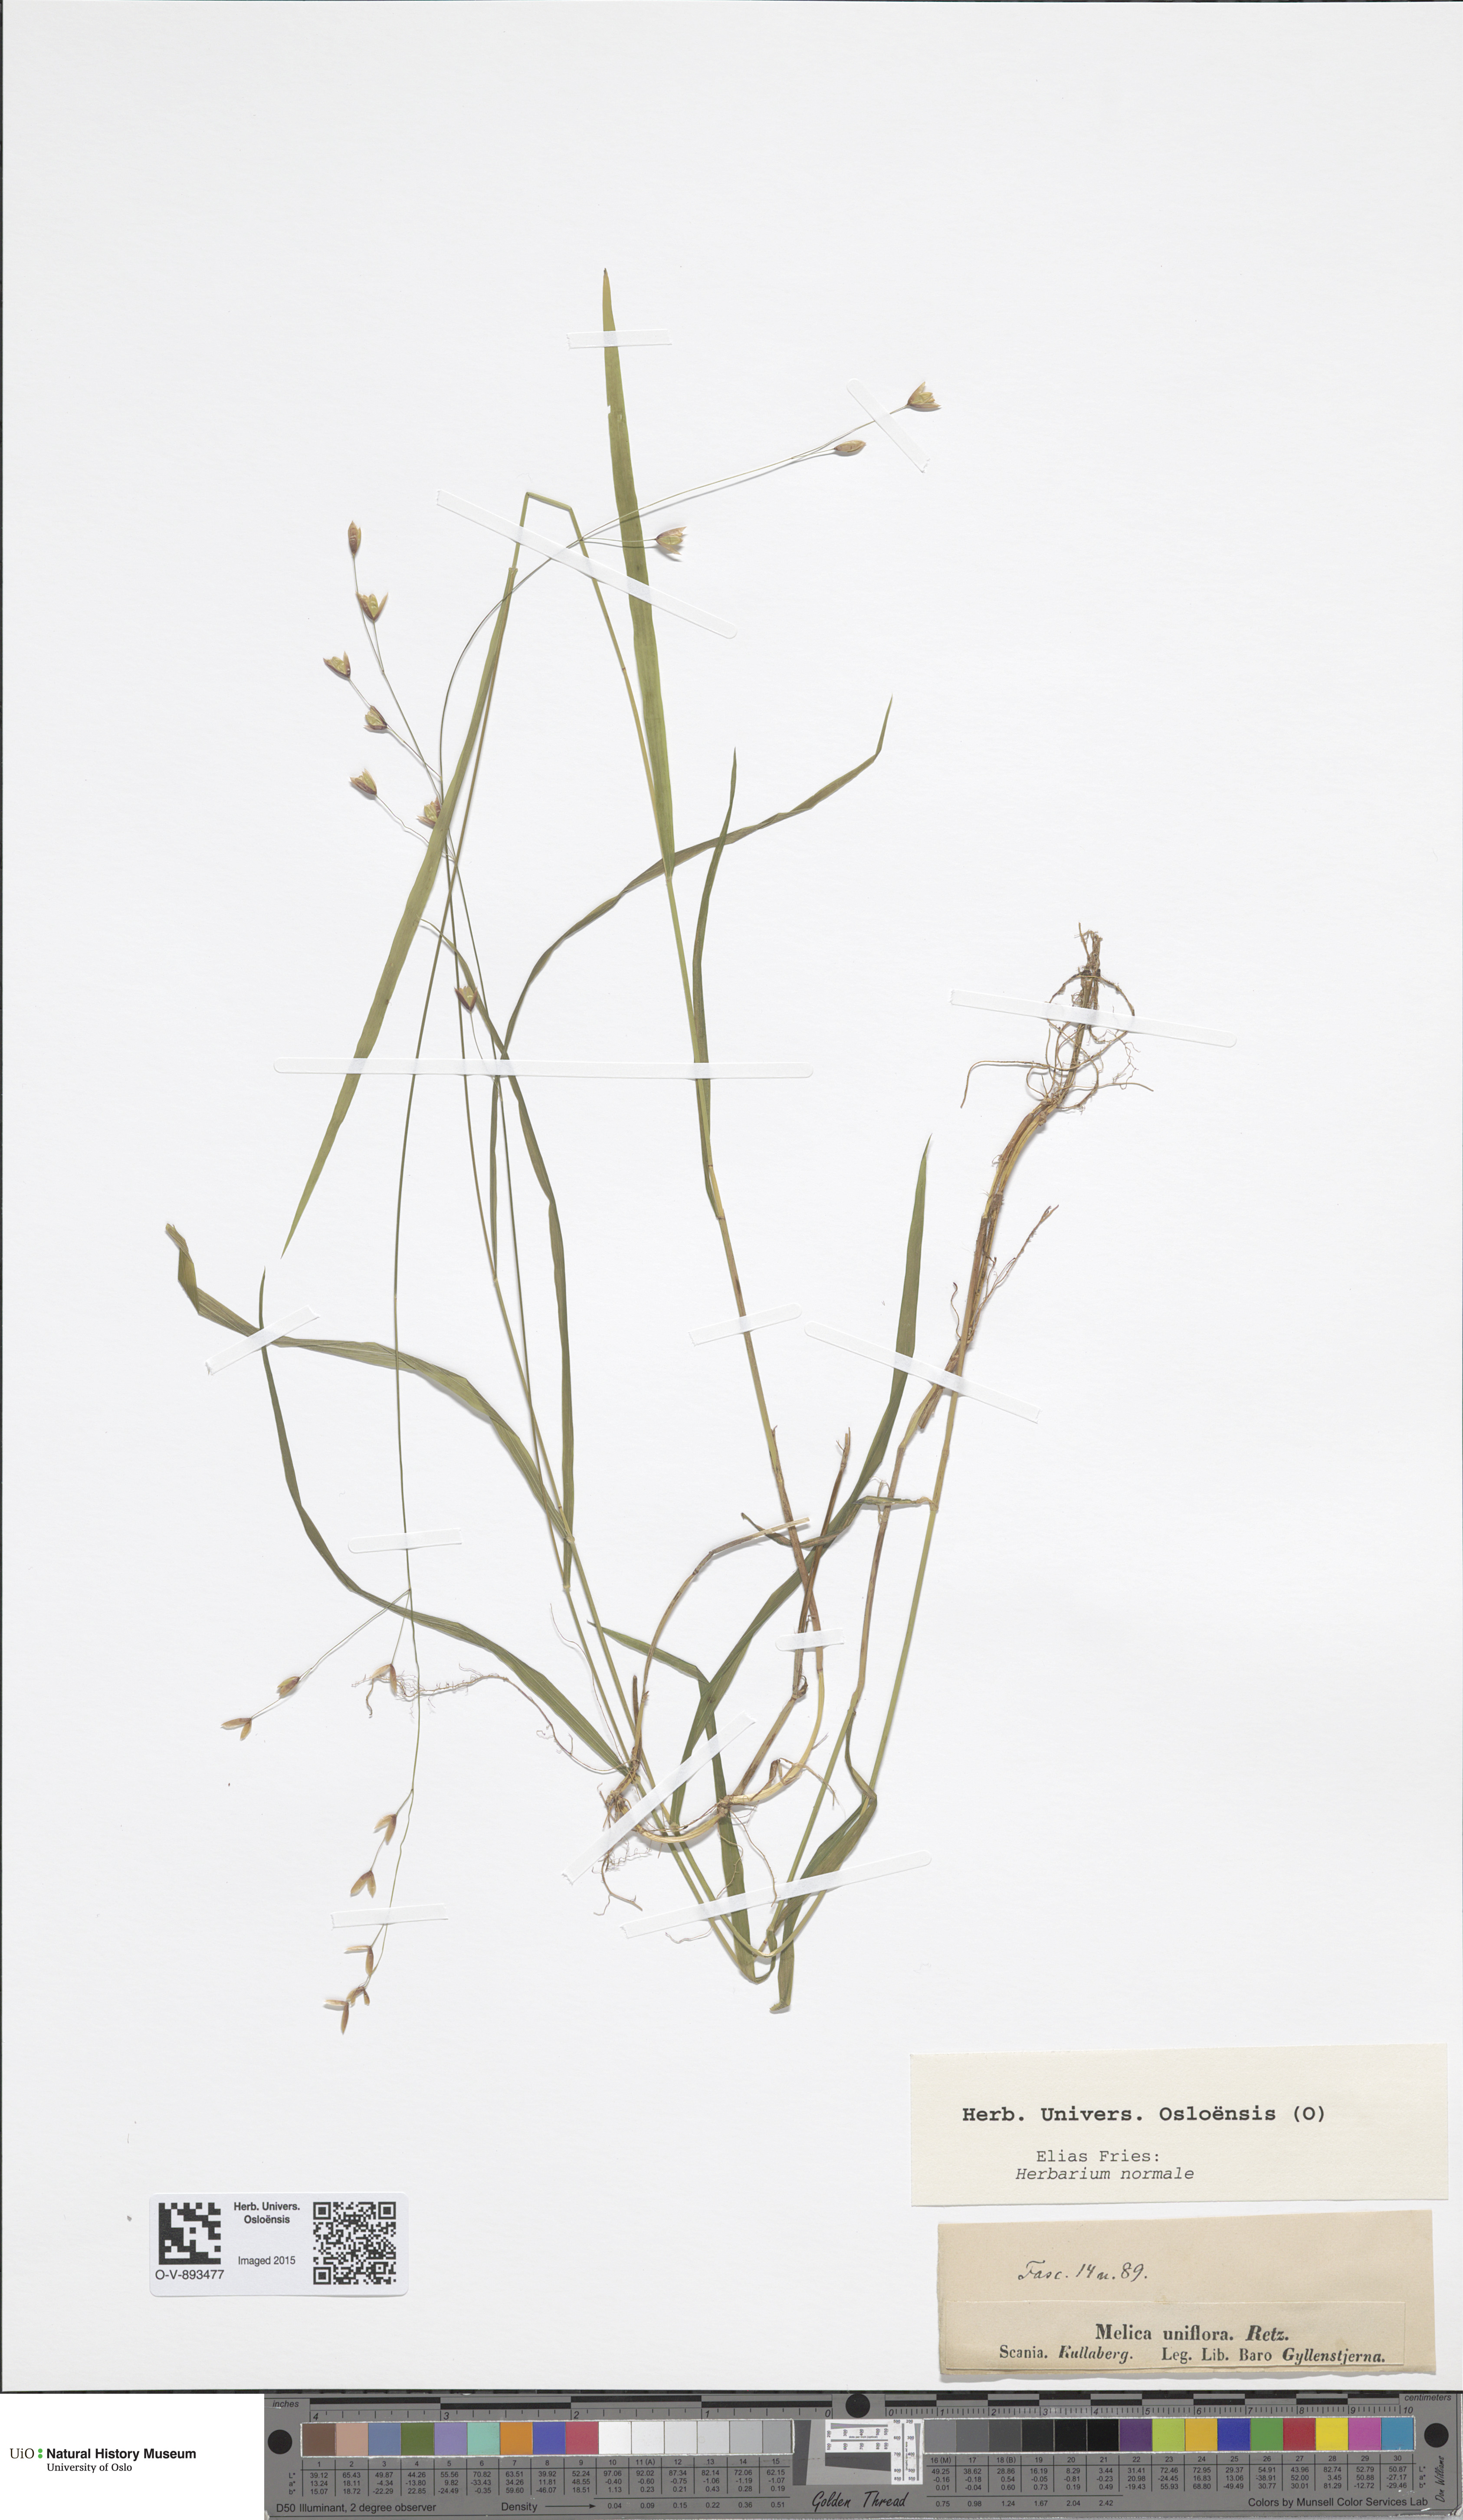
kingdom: Plantae
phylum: Tracheophyta
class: Liliopsida
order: Poales
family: Poaceae
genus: Melica
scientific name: Melica uniflora
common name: Wood melick
